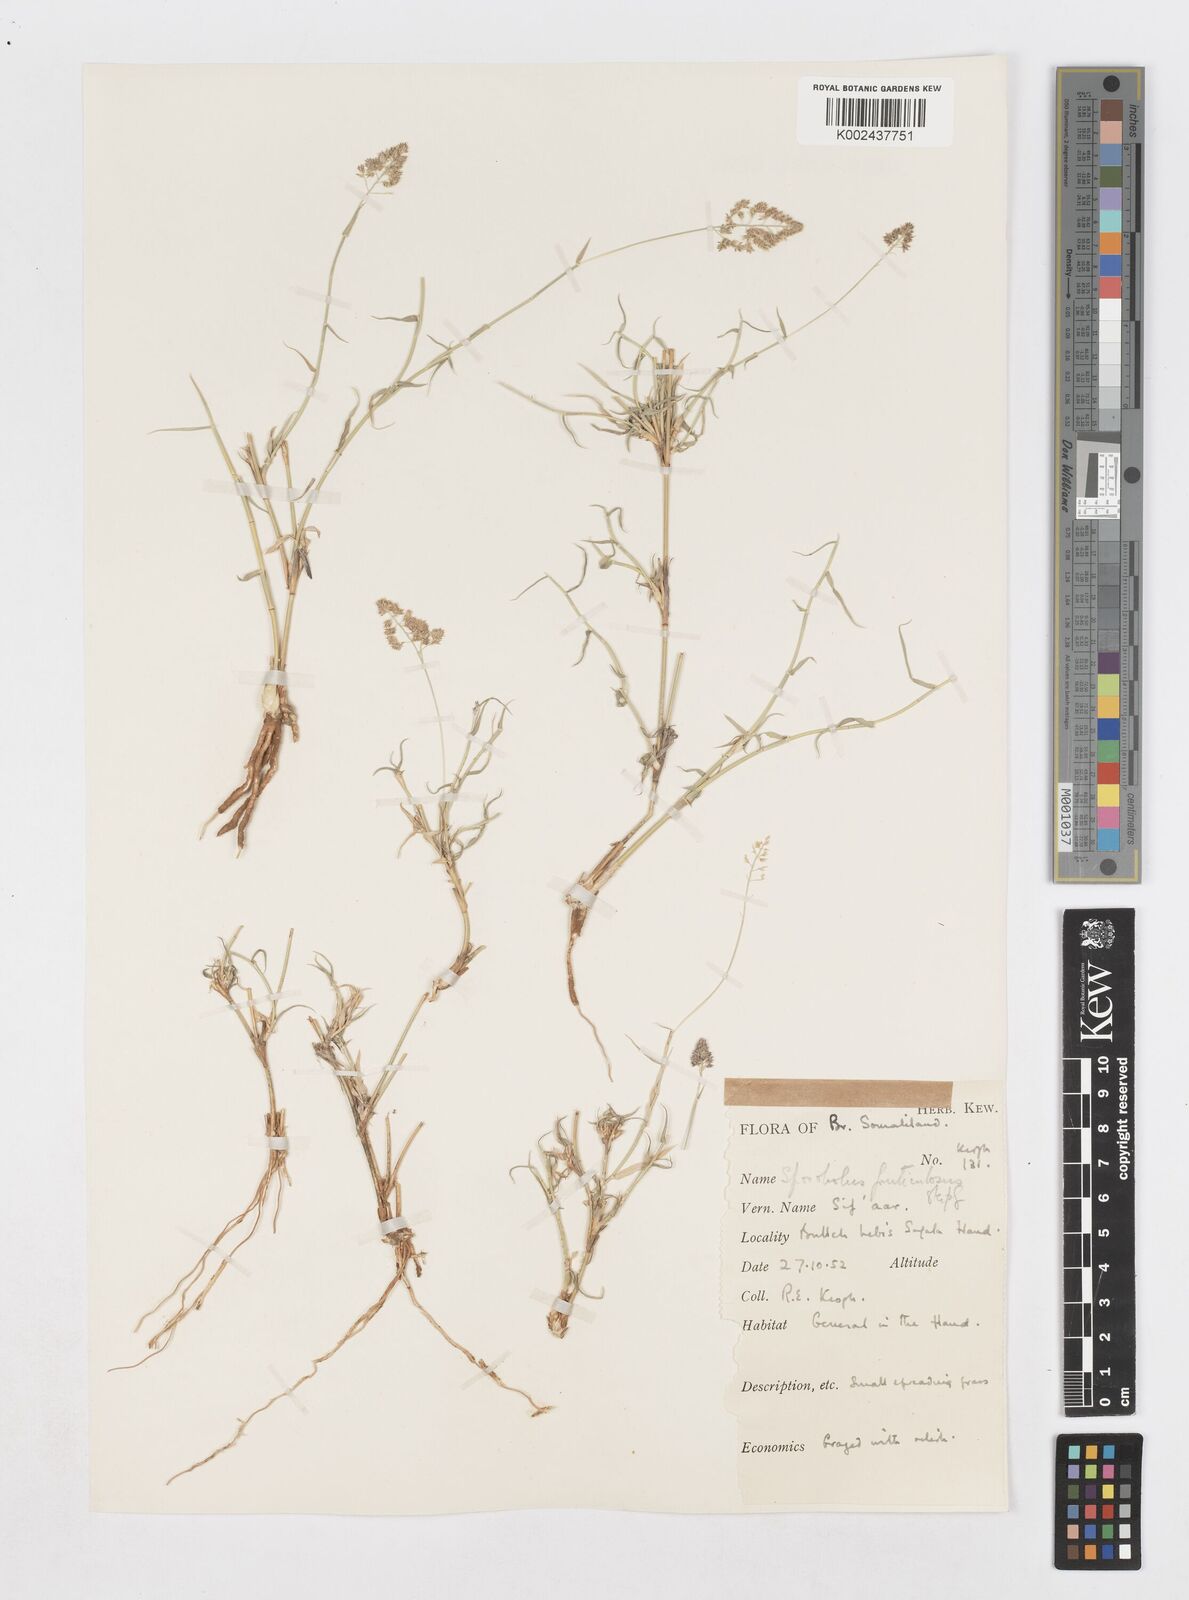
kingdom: Plantae
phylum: Tracheophyta
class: Liliopsida
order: Poales
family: Poaceae
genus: Sporobolus
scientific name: Sporobolus ruspolianus
